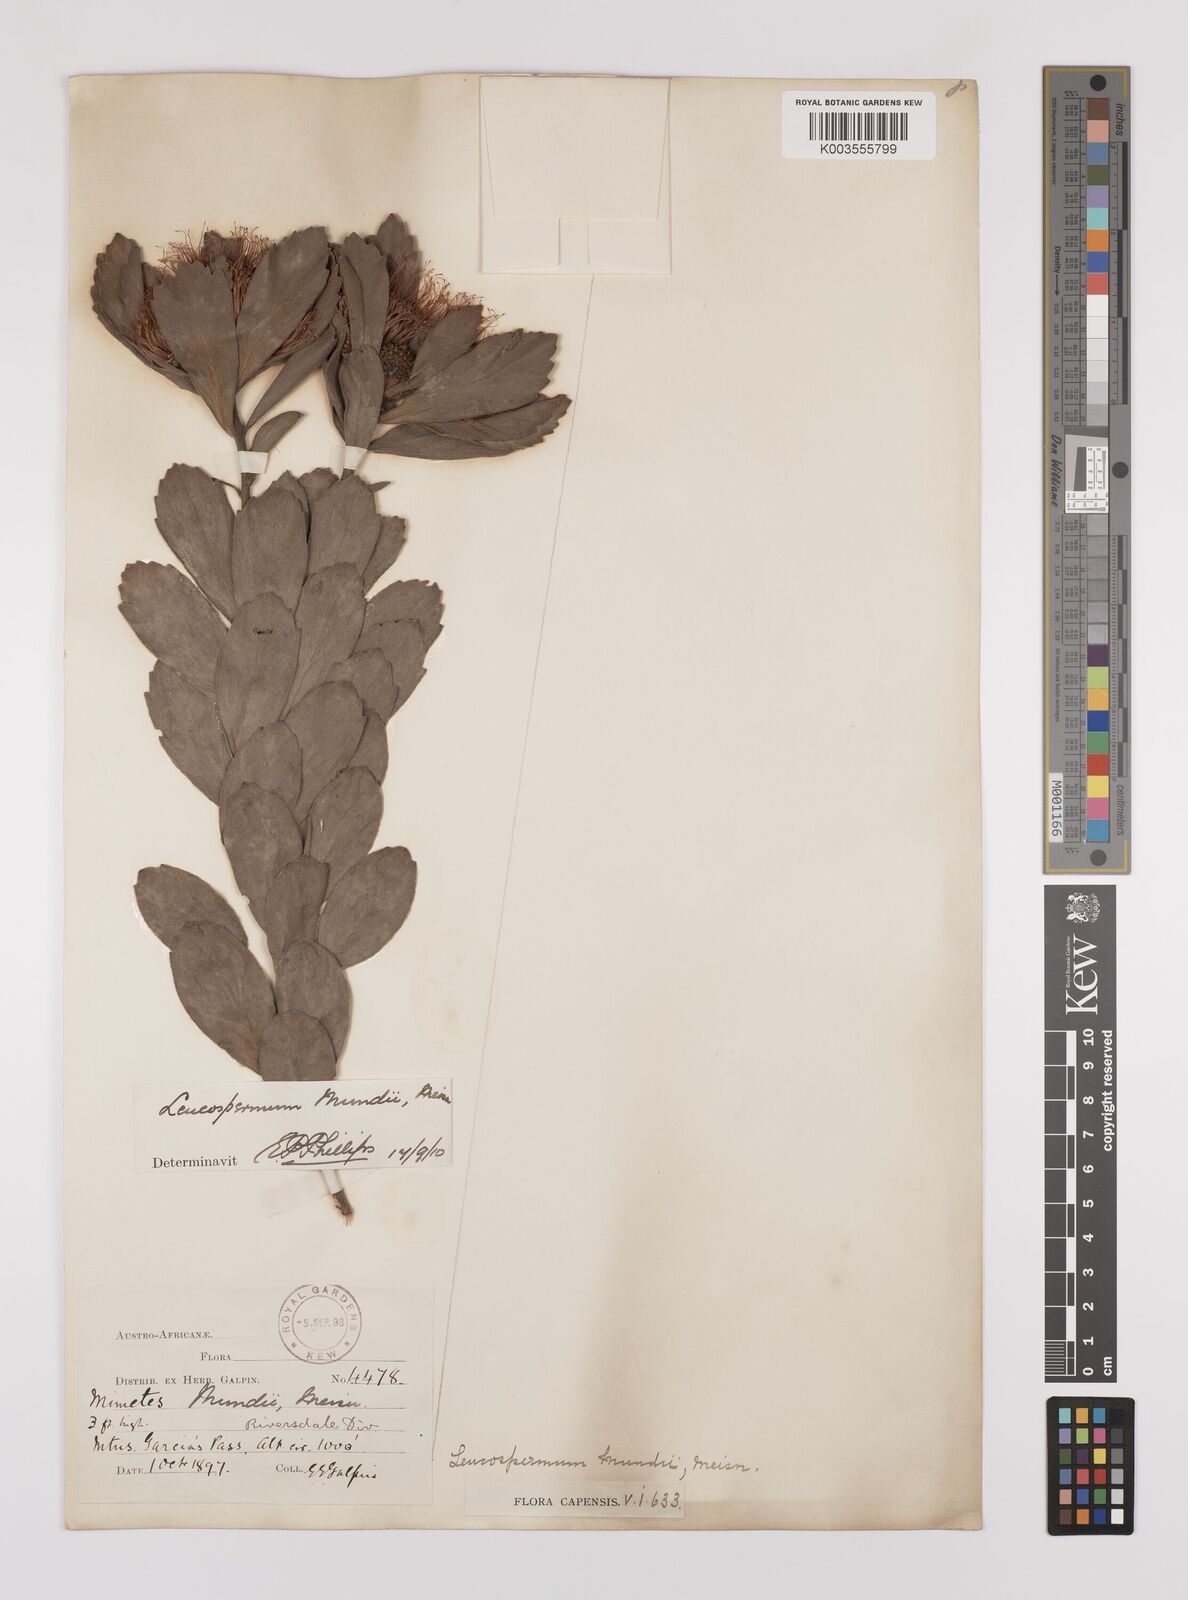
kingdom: Plantae
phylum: Tracheophyta
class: Magnoliopsida
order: Proteales
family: Proteaceae
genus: Leucospermum
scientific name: Leucospermum mundii
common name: Langeberg pincushion
